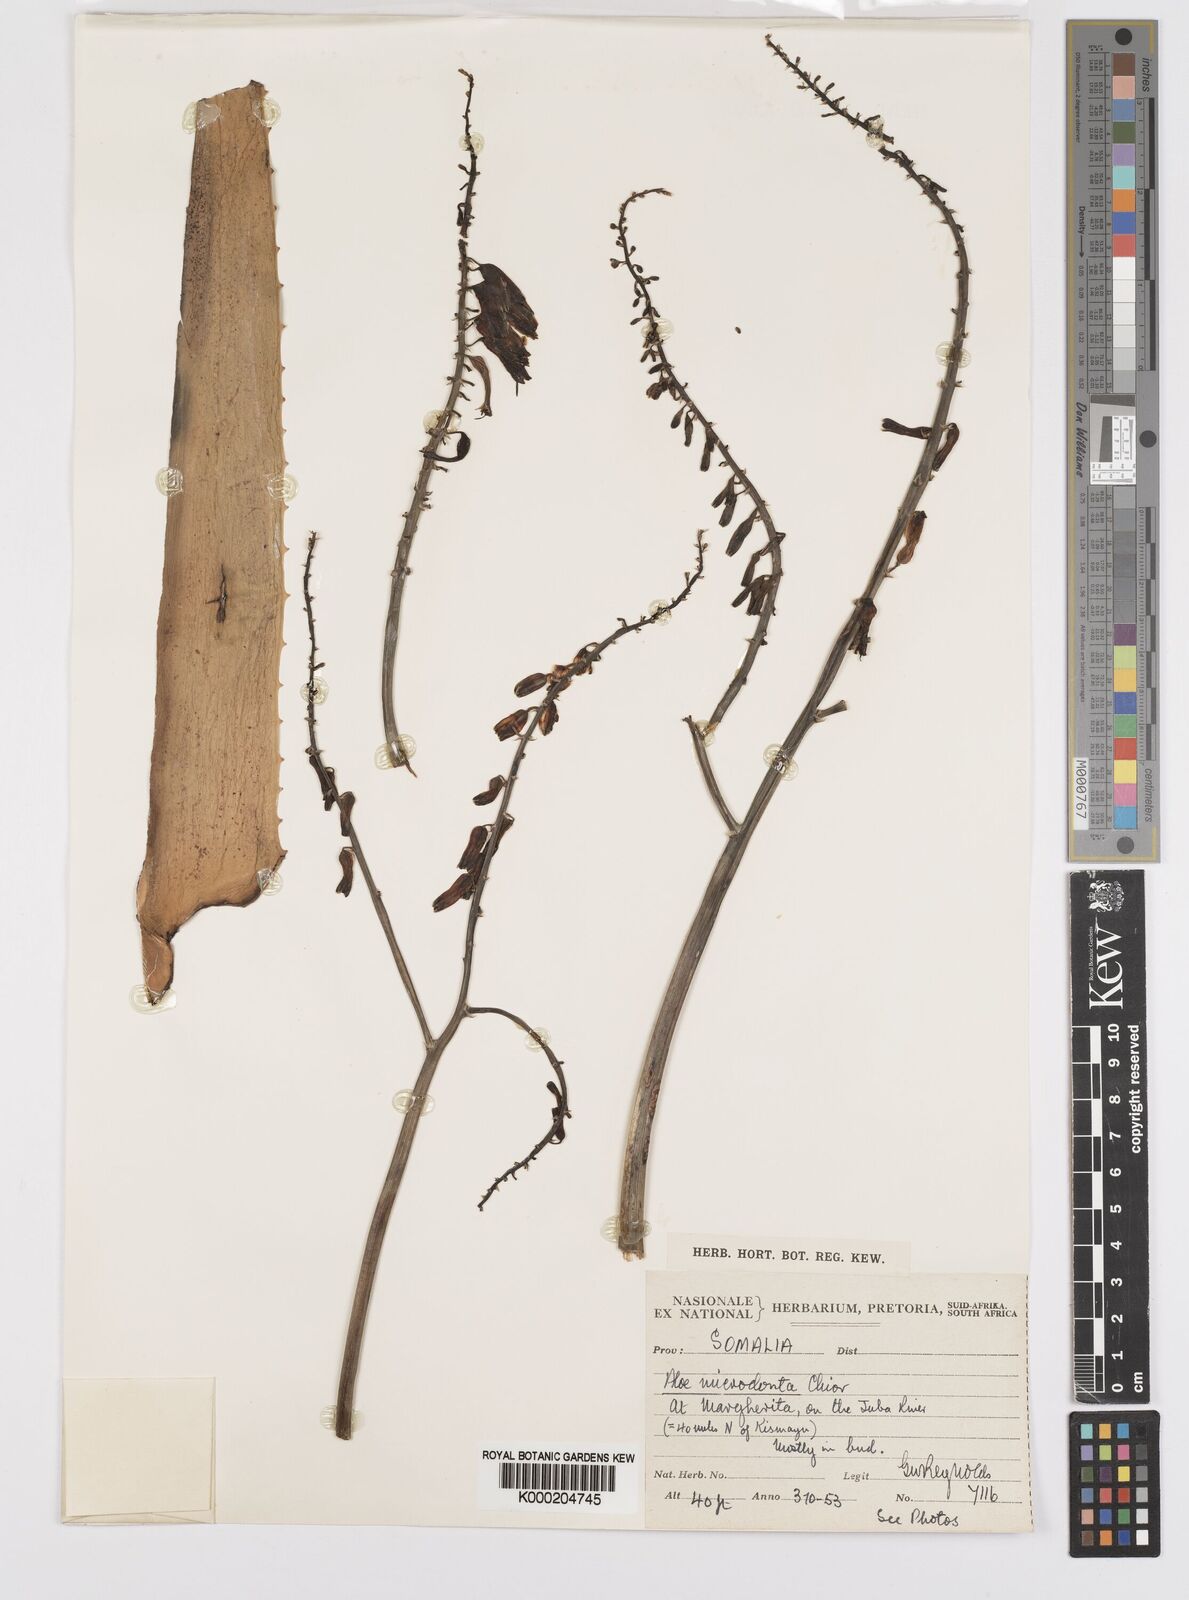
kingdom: Plantae
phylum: Tracheophyta
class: Liliopsida
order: Asparagales
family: Asphodelaceae
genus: Aloe
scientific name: Aloe microdonta
